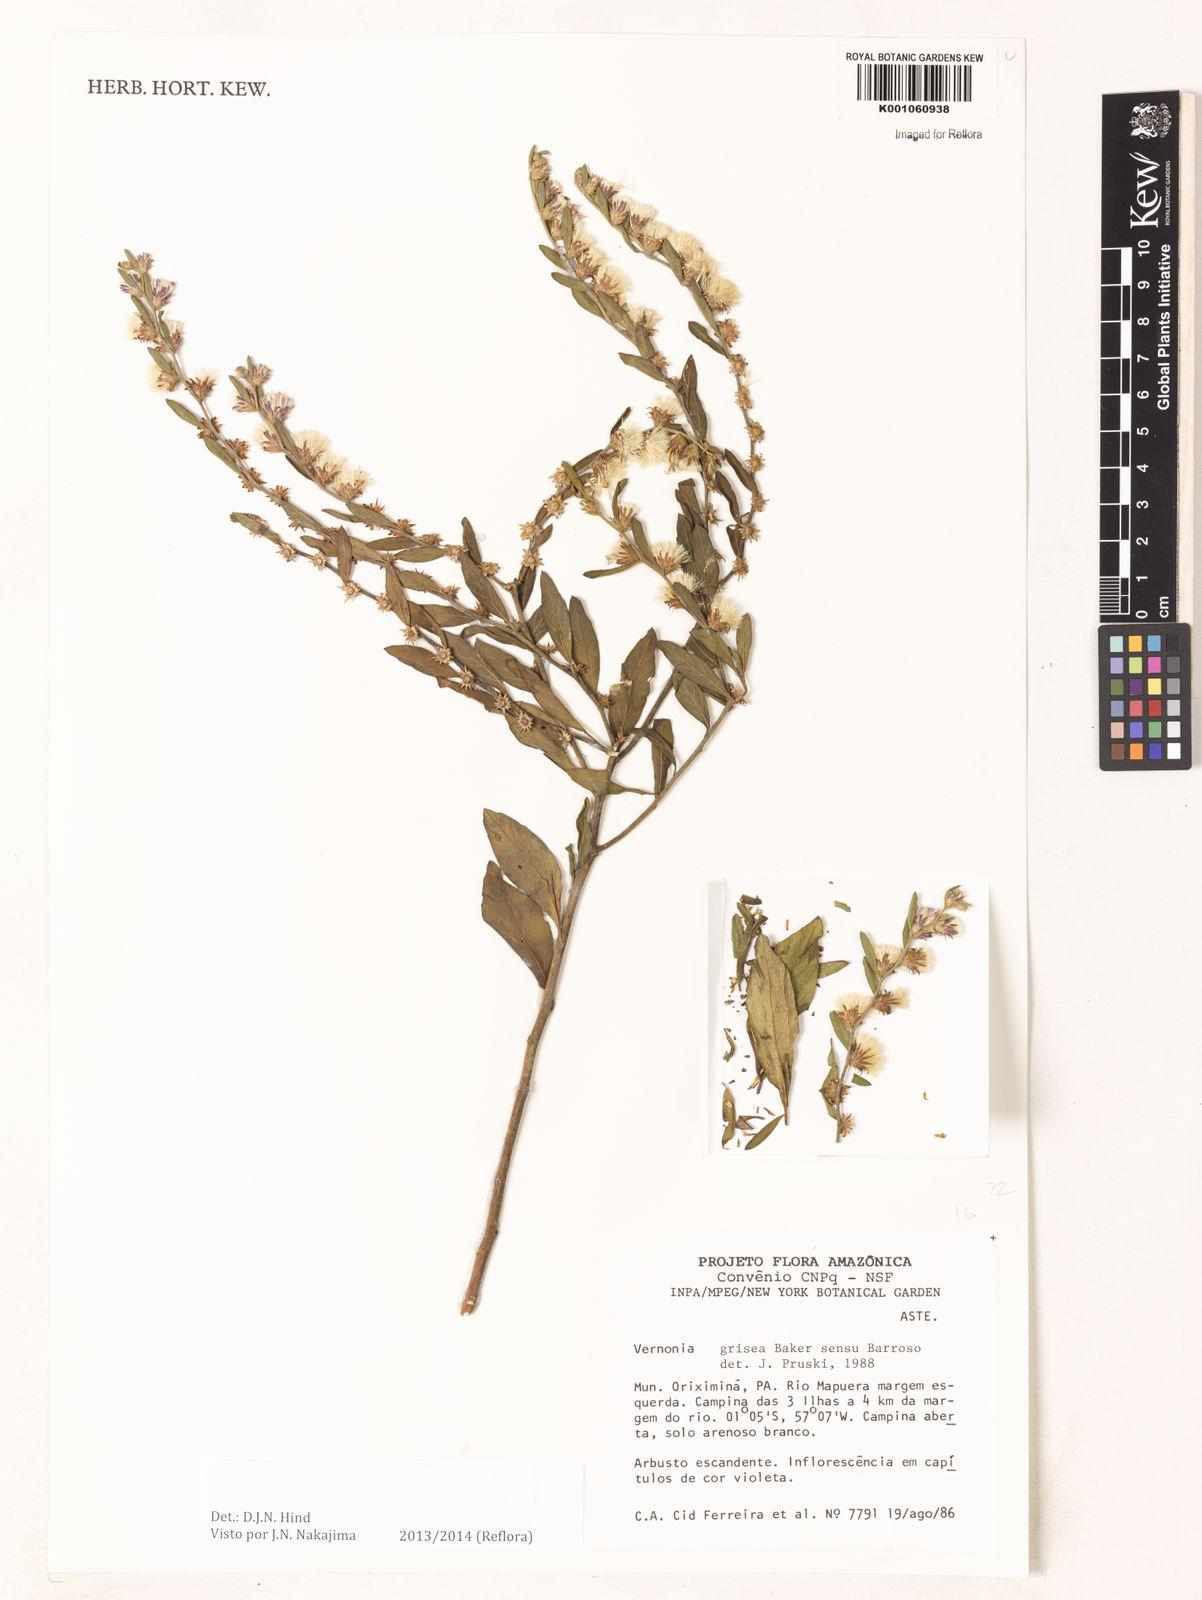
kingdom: Plantae
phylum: Tracheophyta
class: Magnoliopsida
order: Asterales
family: Asteraceae
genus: Lepidaploa
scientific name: Lepidaploa grisea
